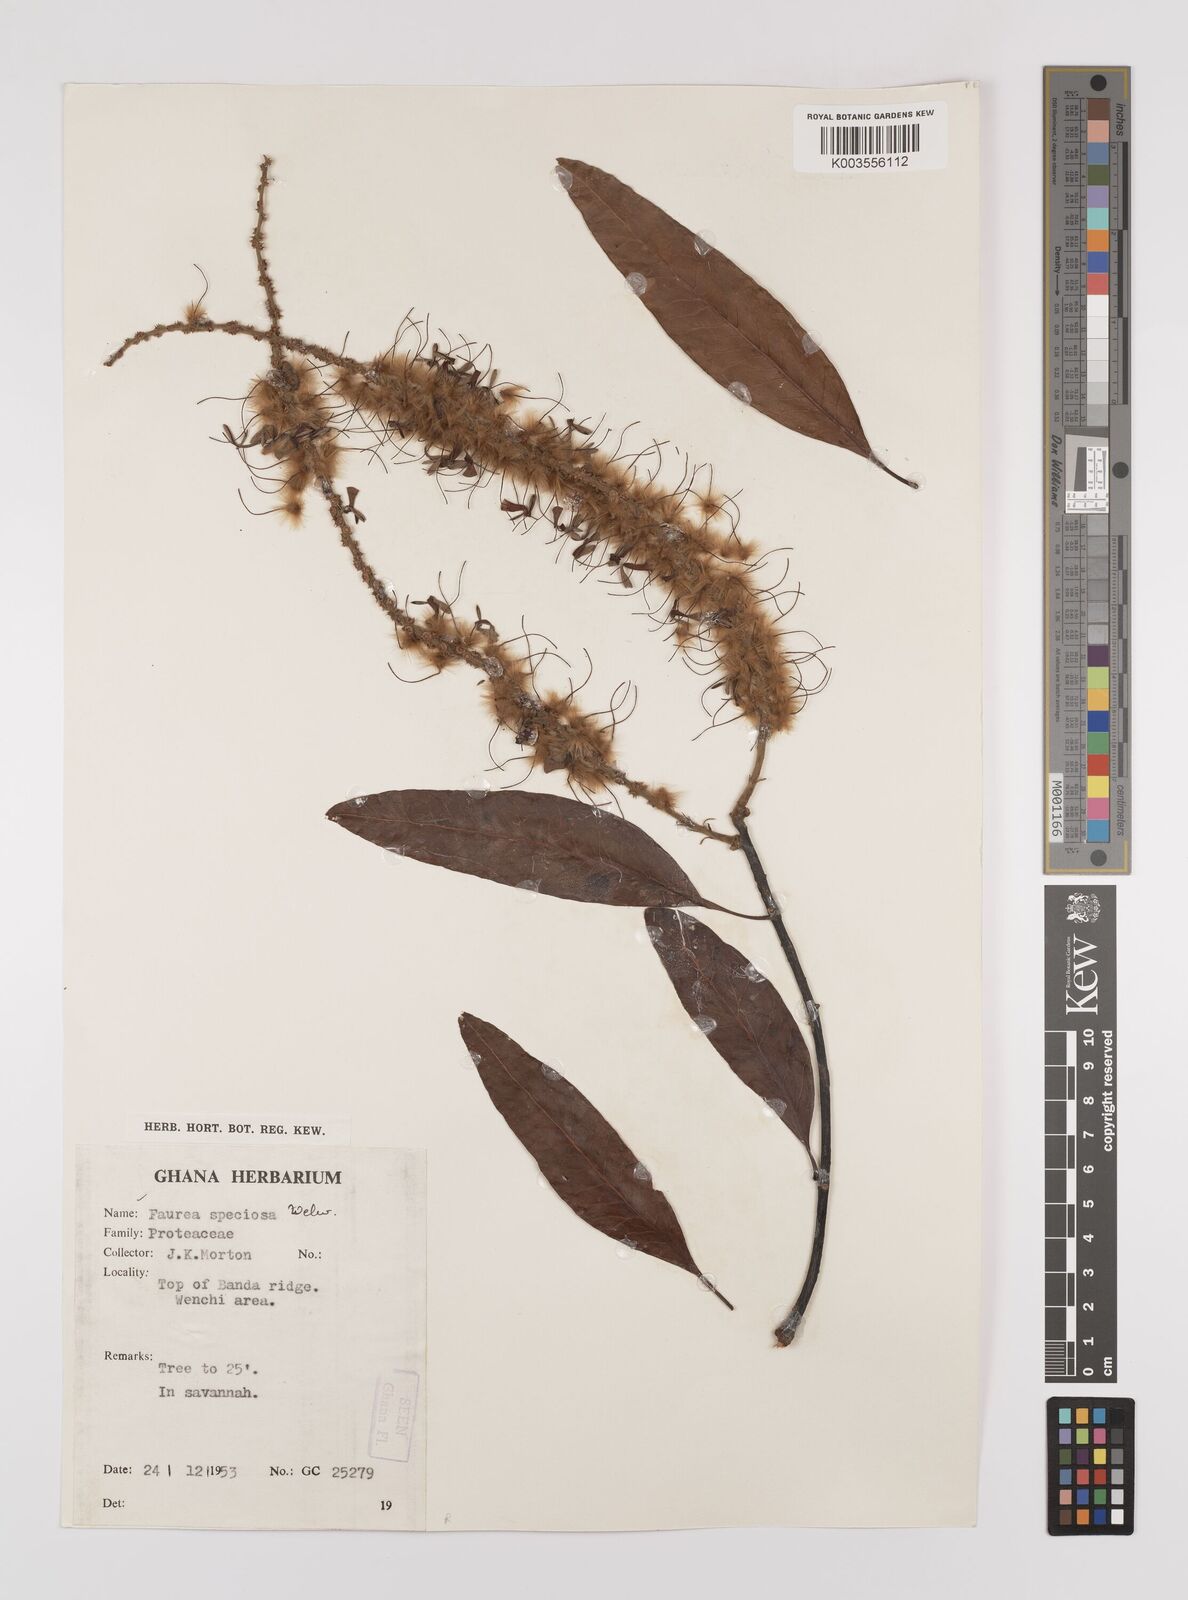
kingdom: Plantae
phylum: Tracheophyta
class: Magnoliopsida
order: Proteales
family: Proteaceae
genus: Faurea
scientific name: Faurea rochetiana
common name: Broad-leaved beech
